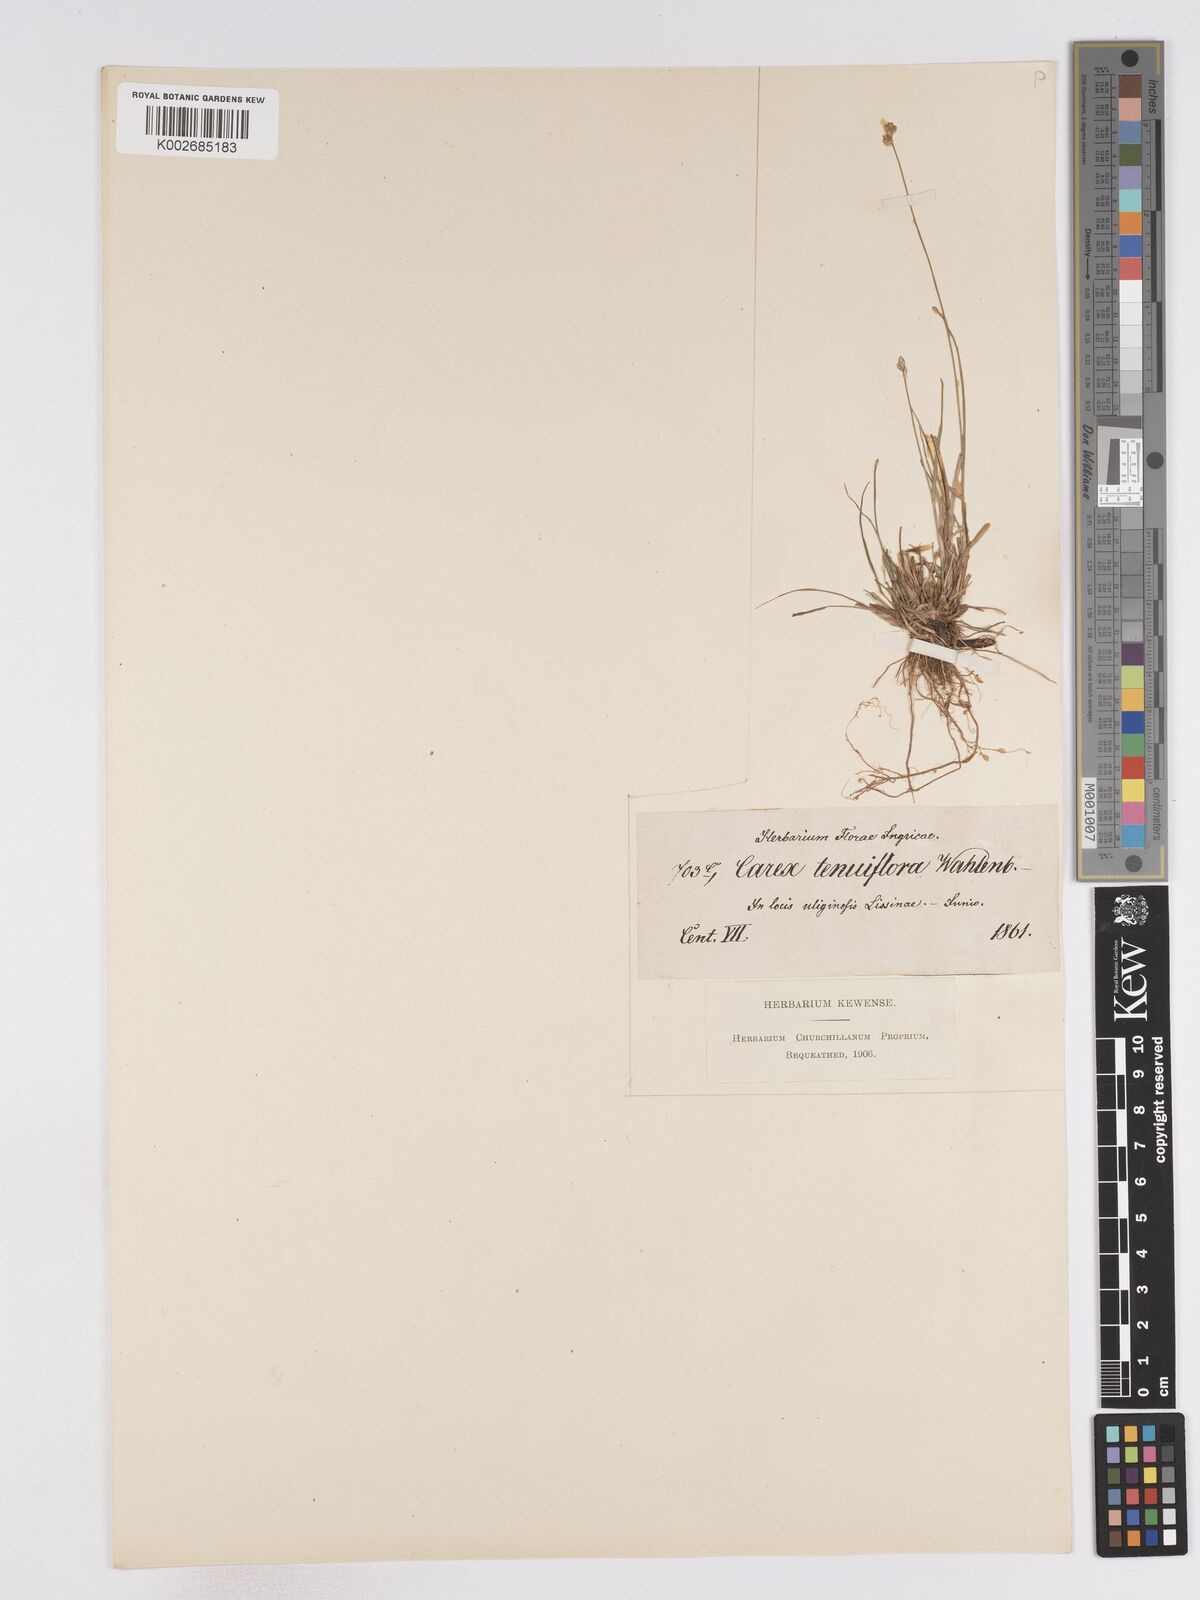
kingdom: Plantae
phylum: Tracheophyta
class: Liliopsida
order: Poales
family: Cyperaceae
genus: Carex
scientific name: Carex tenuiflora
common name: Sparse-flowered sedge
